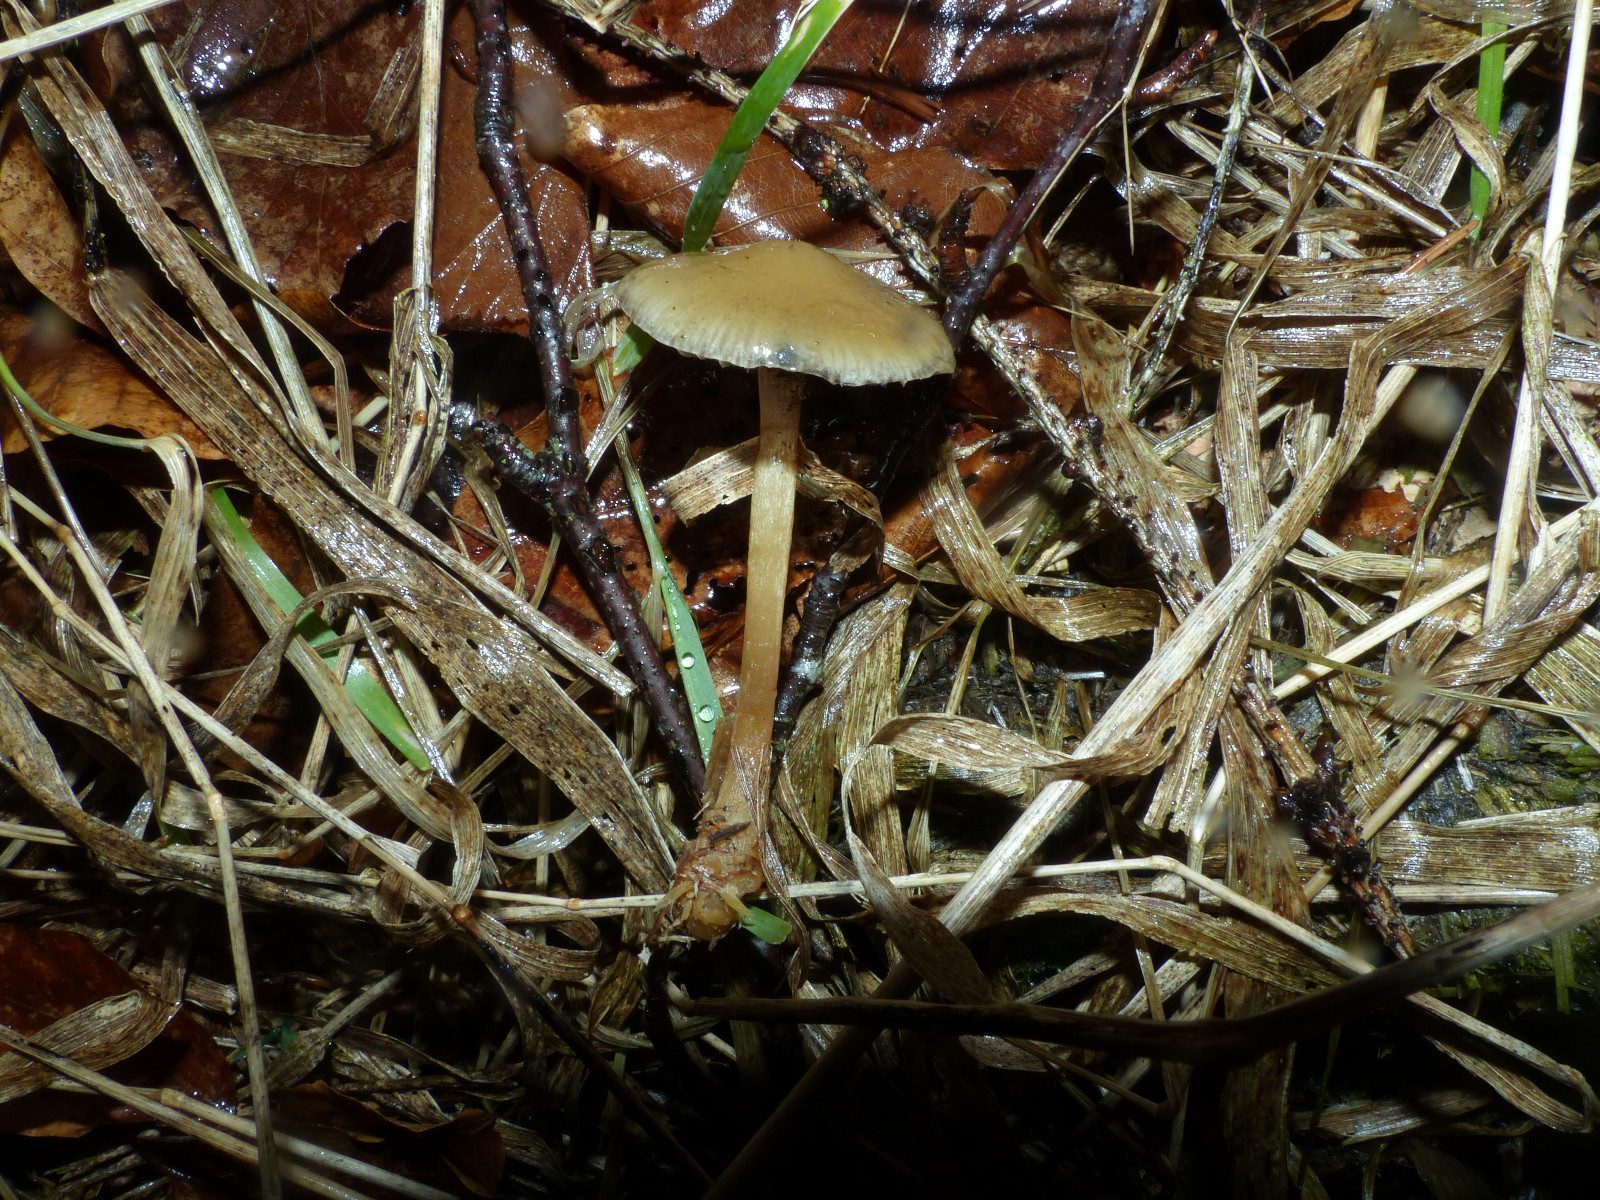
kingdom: Fungi
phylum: Basidiomycota
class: Agaricomycetes
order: Agaricales
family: Strophariaceae
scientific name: Strophariaceae
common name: bredbladfamilien
